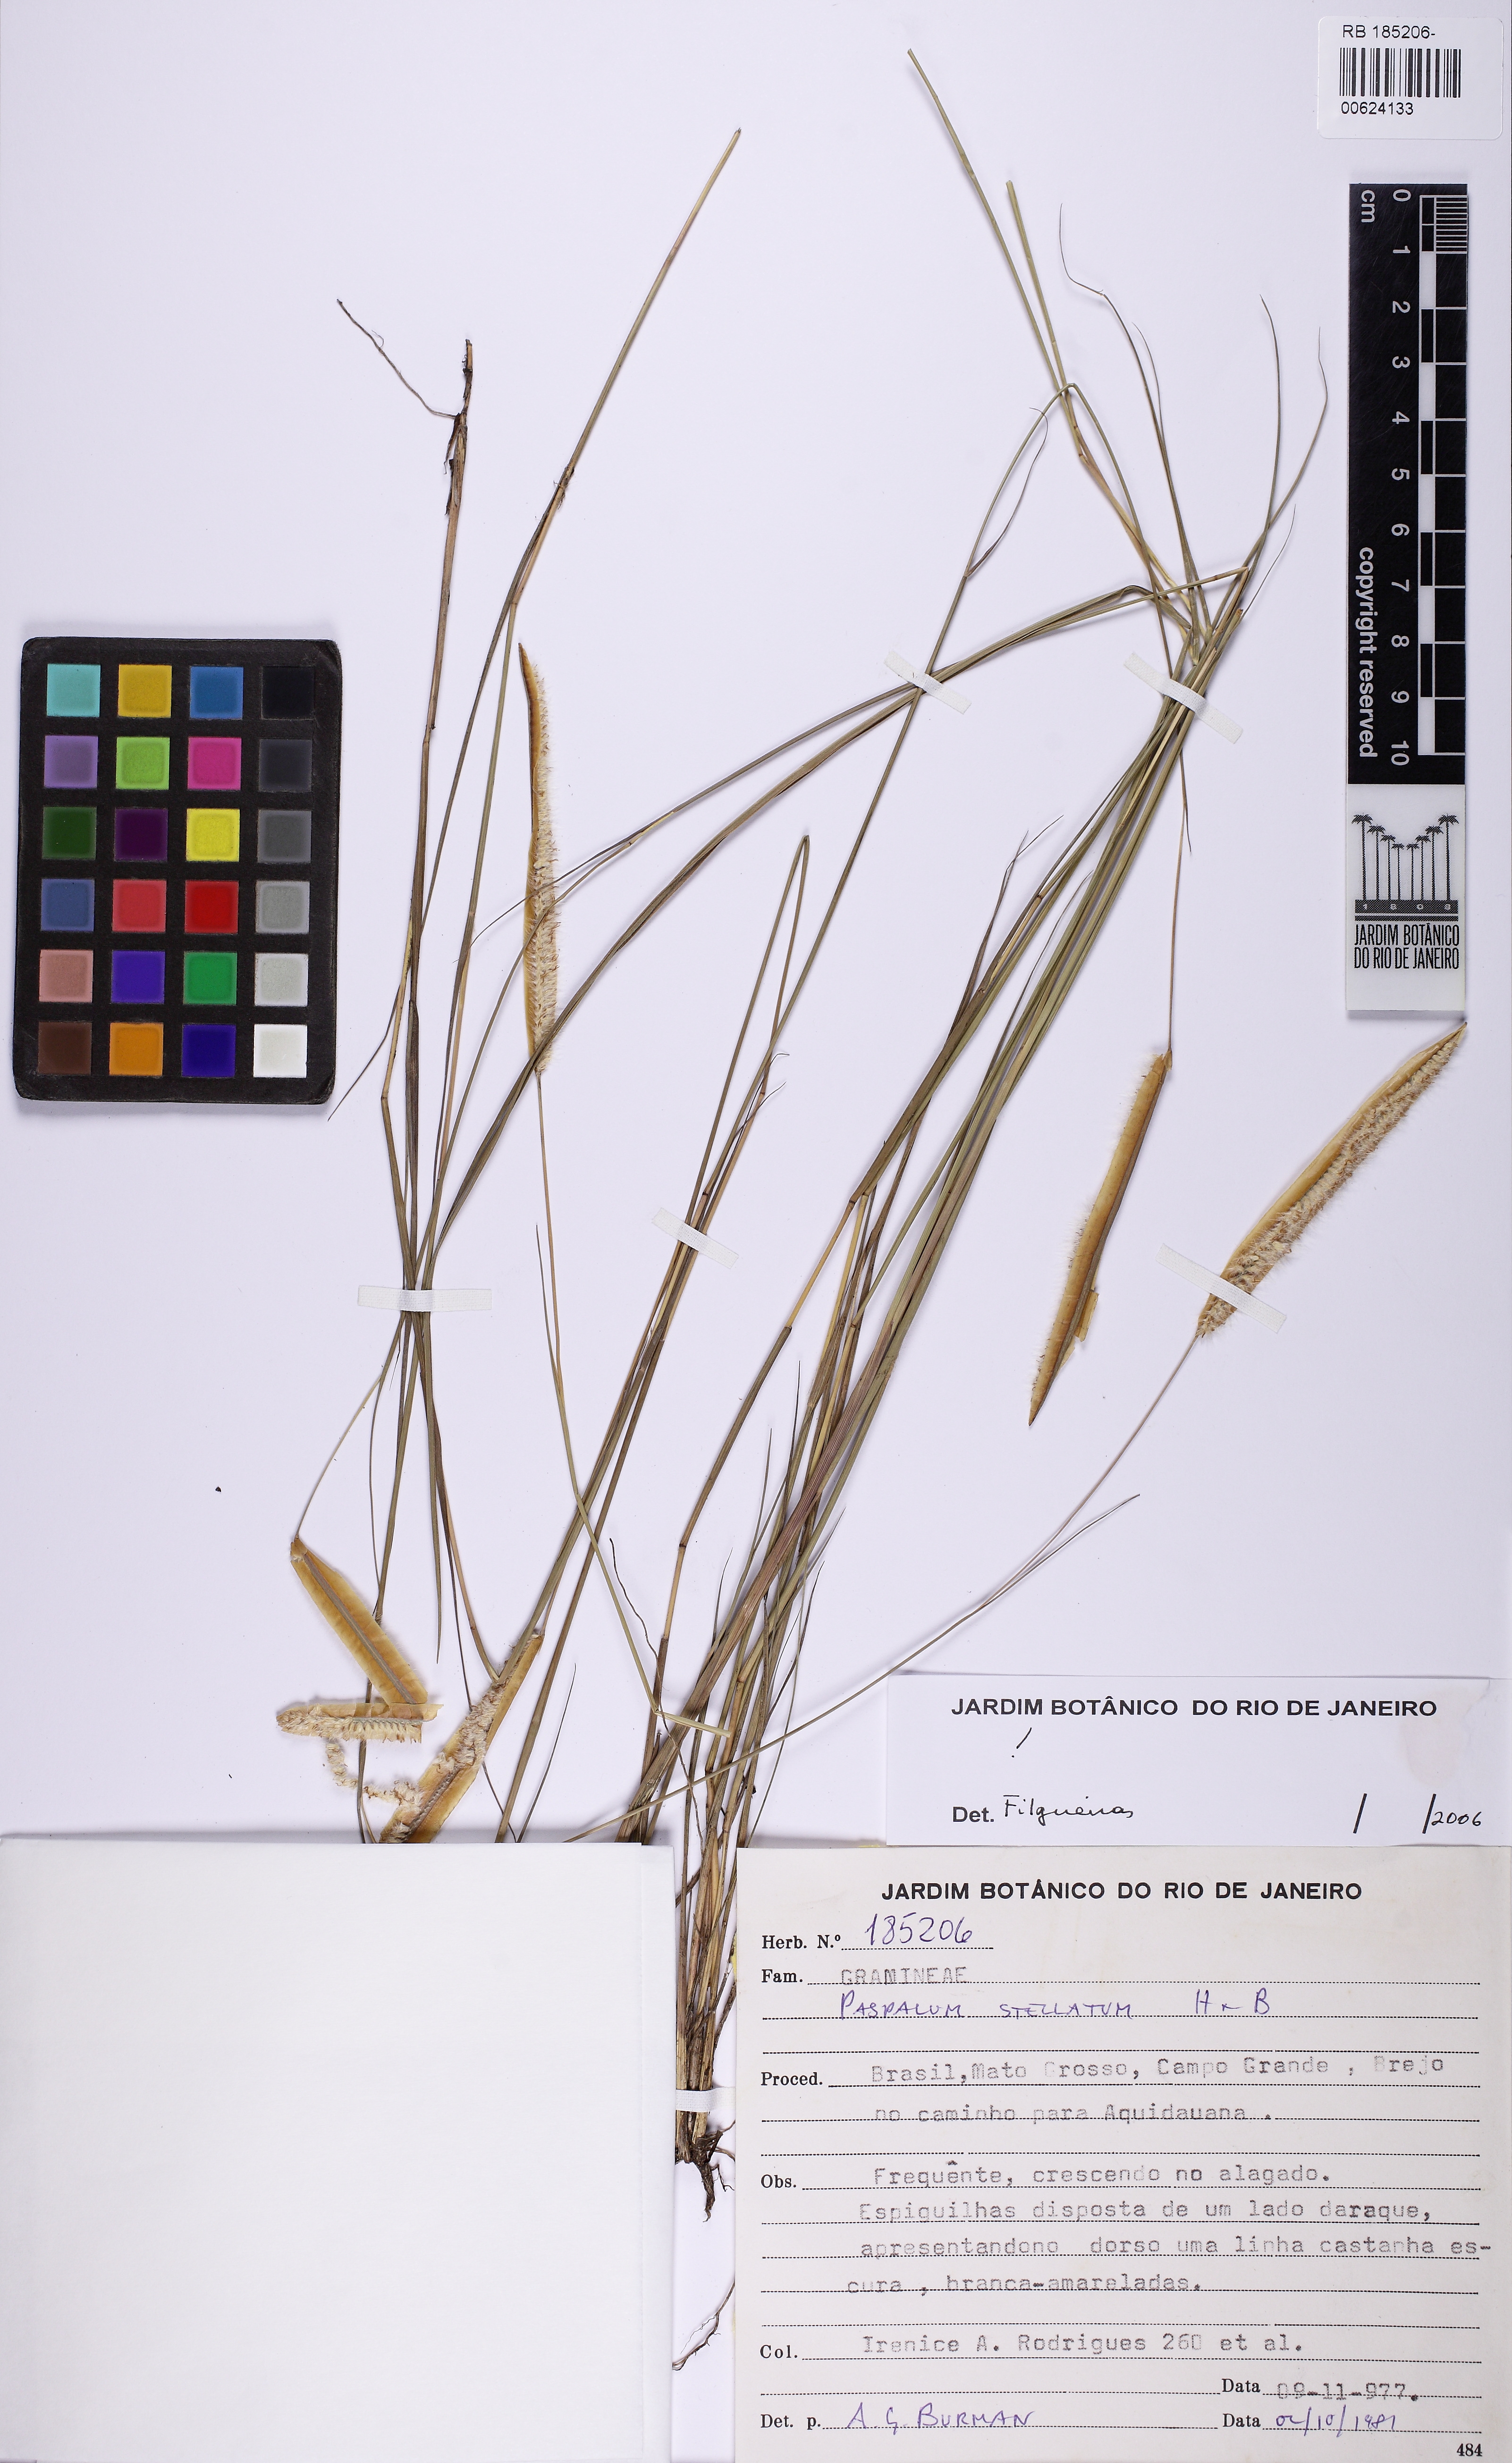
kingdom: Plantae
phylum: Tracheophyta
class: Liliopsida
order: Poales
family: Poaceae
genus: Paspalum
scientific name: Paspalum stellatum
